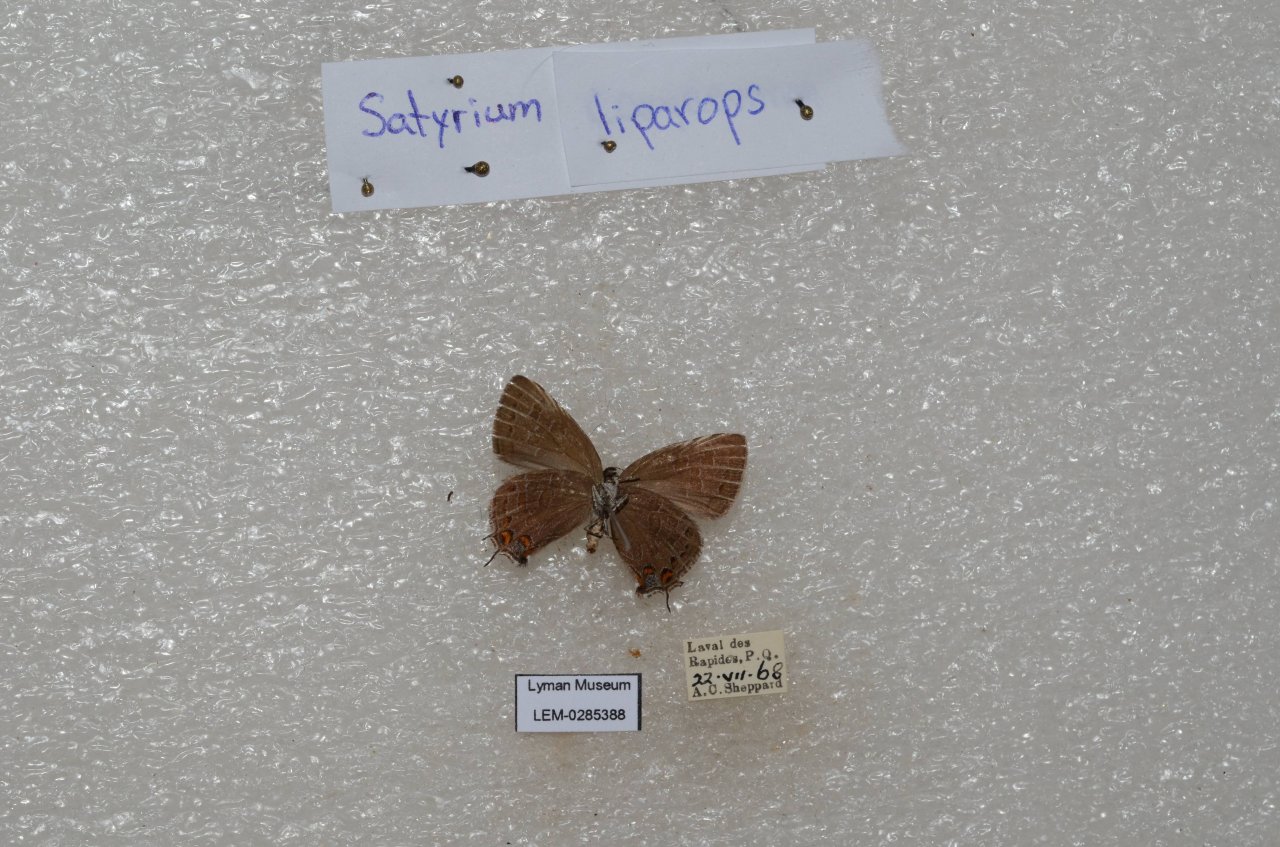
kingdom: Animalia
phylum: Arthropoda
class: Insecta
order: Lepidoptera
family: Lycaenidae
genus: Satyrium
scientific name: Satyrium liparops
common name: Striped Hairstreak
